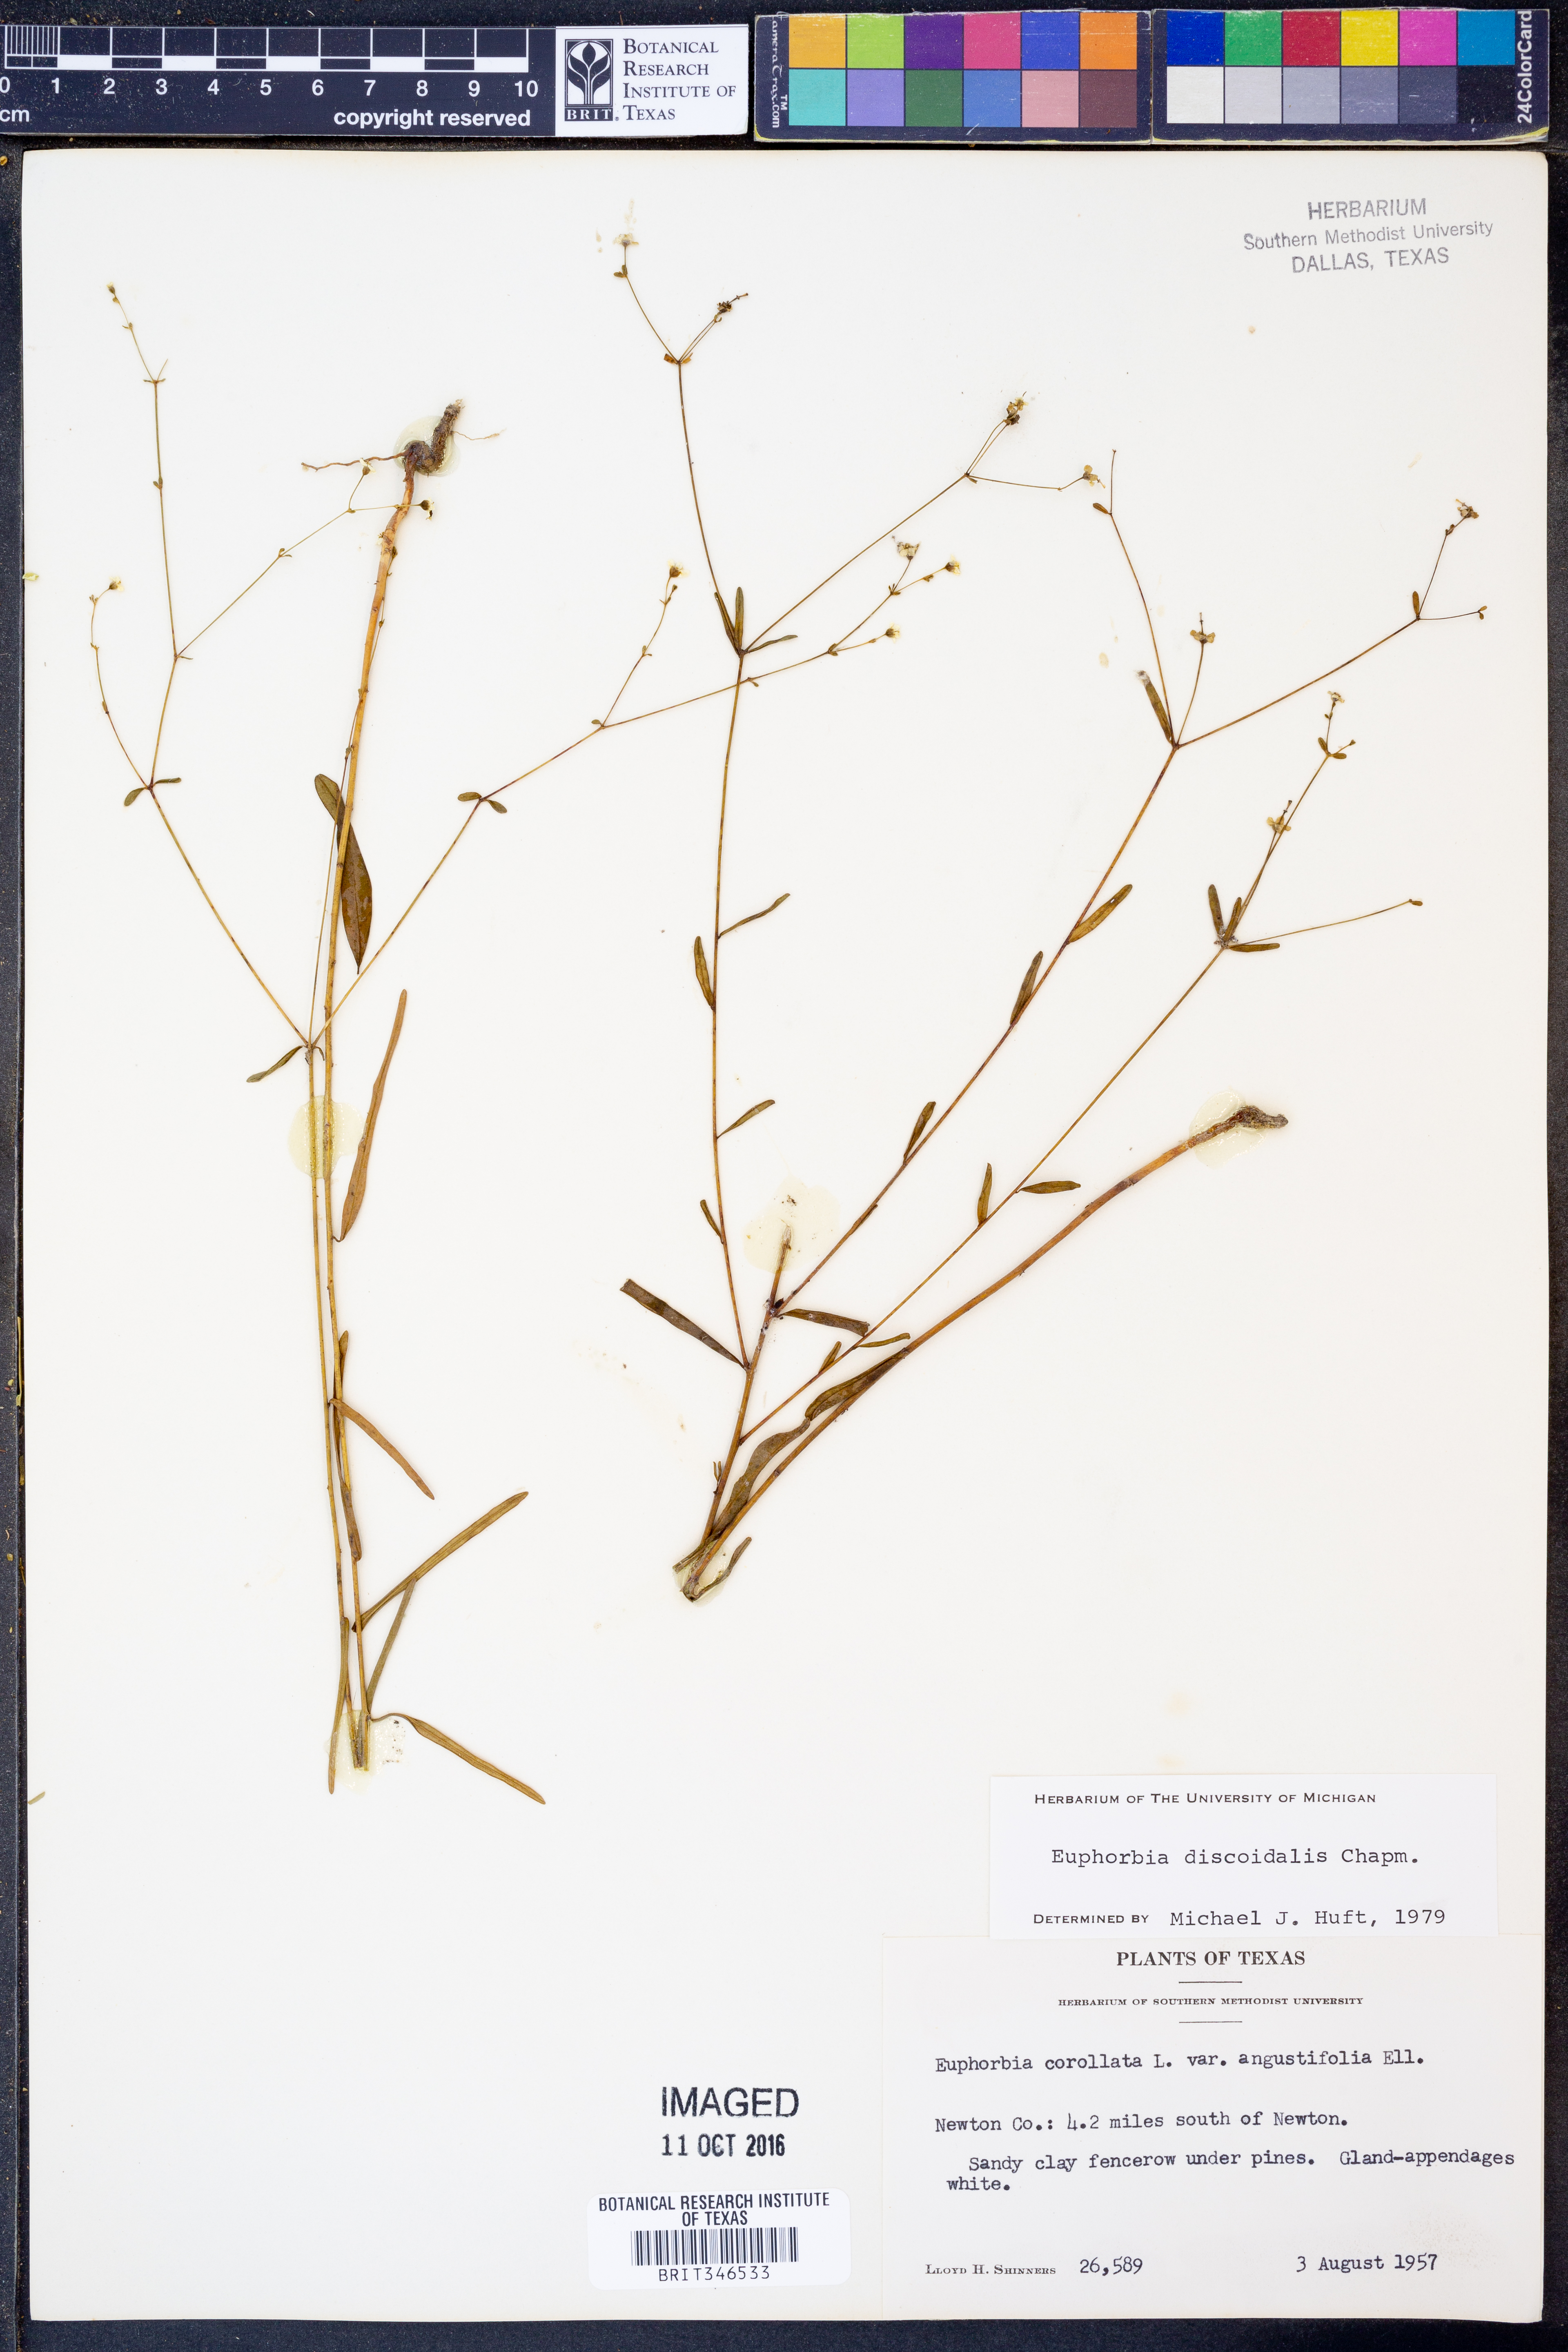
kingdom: Plantae
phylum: Tracheophyta
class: Magnoliopsida
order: Malpighiales
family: Euphorbiaceae
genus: Euphorbia
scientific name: Euphorbia discoidalis
